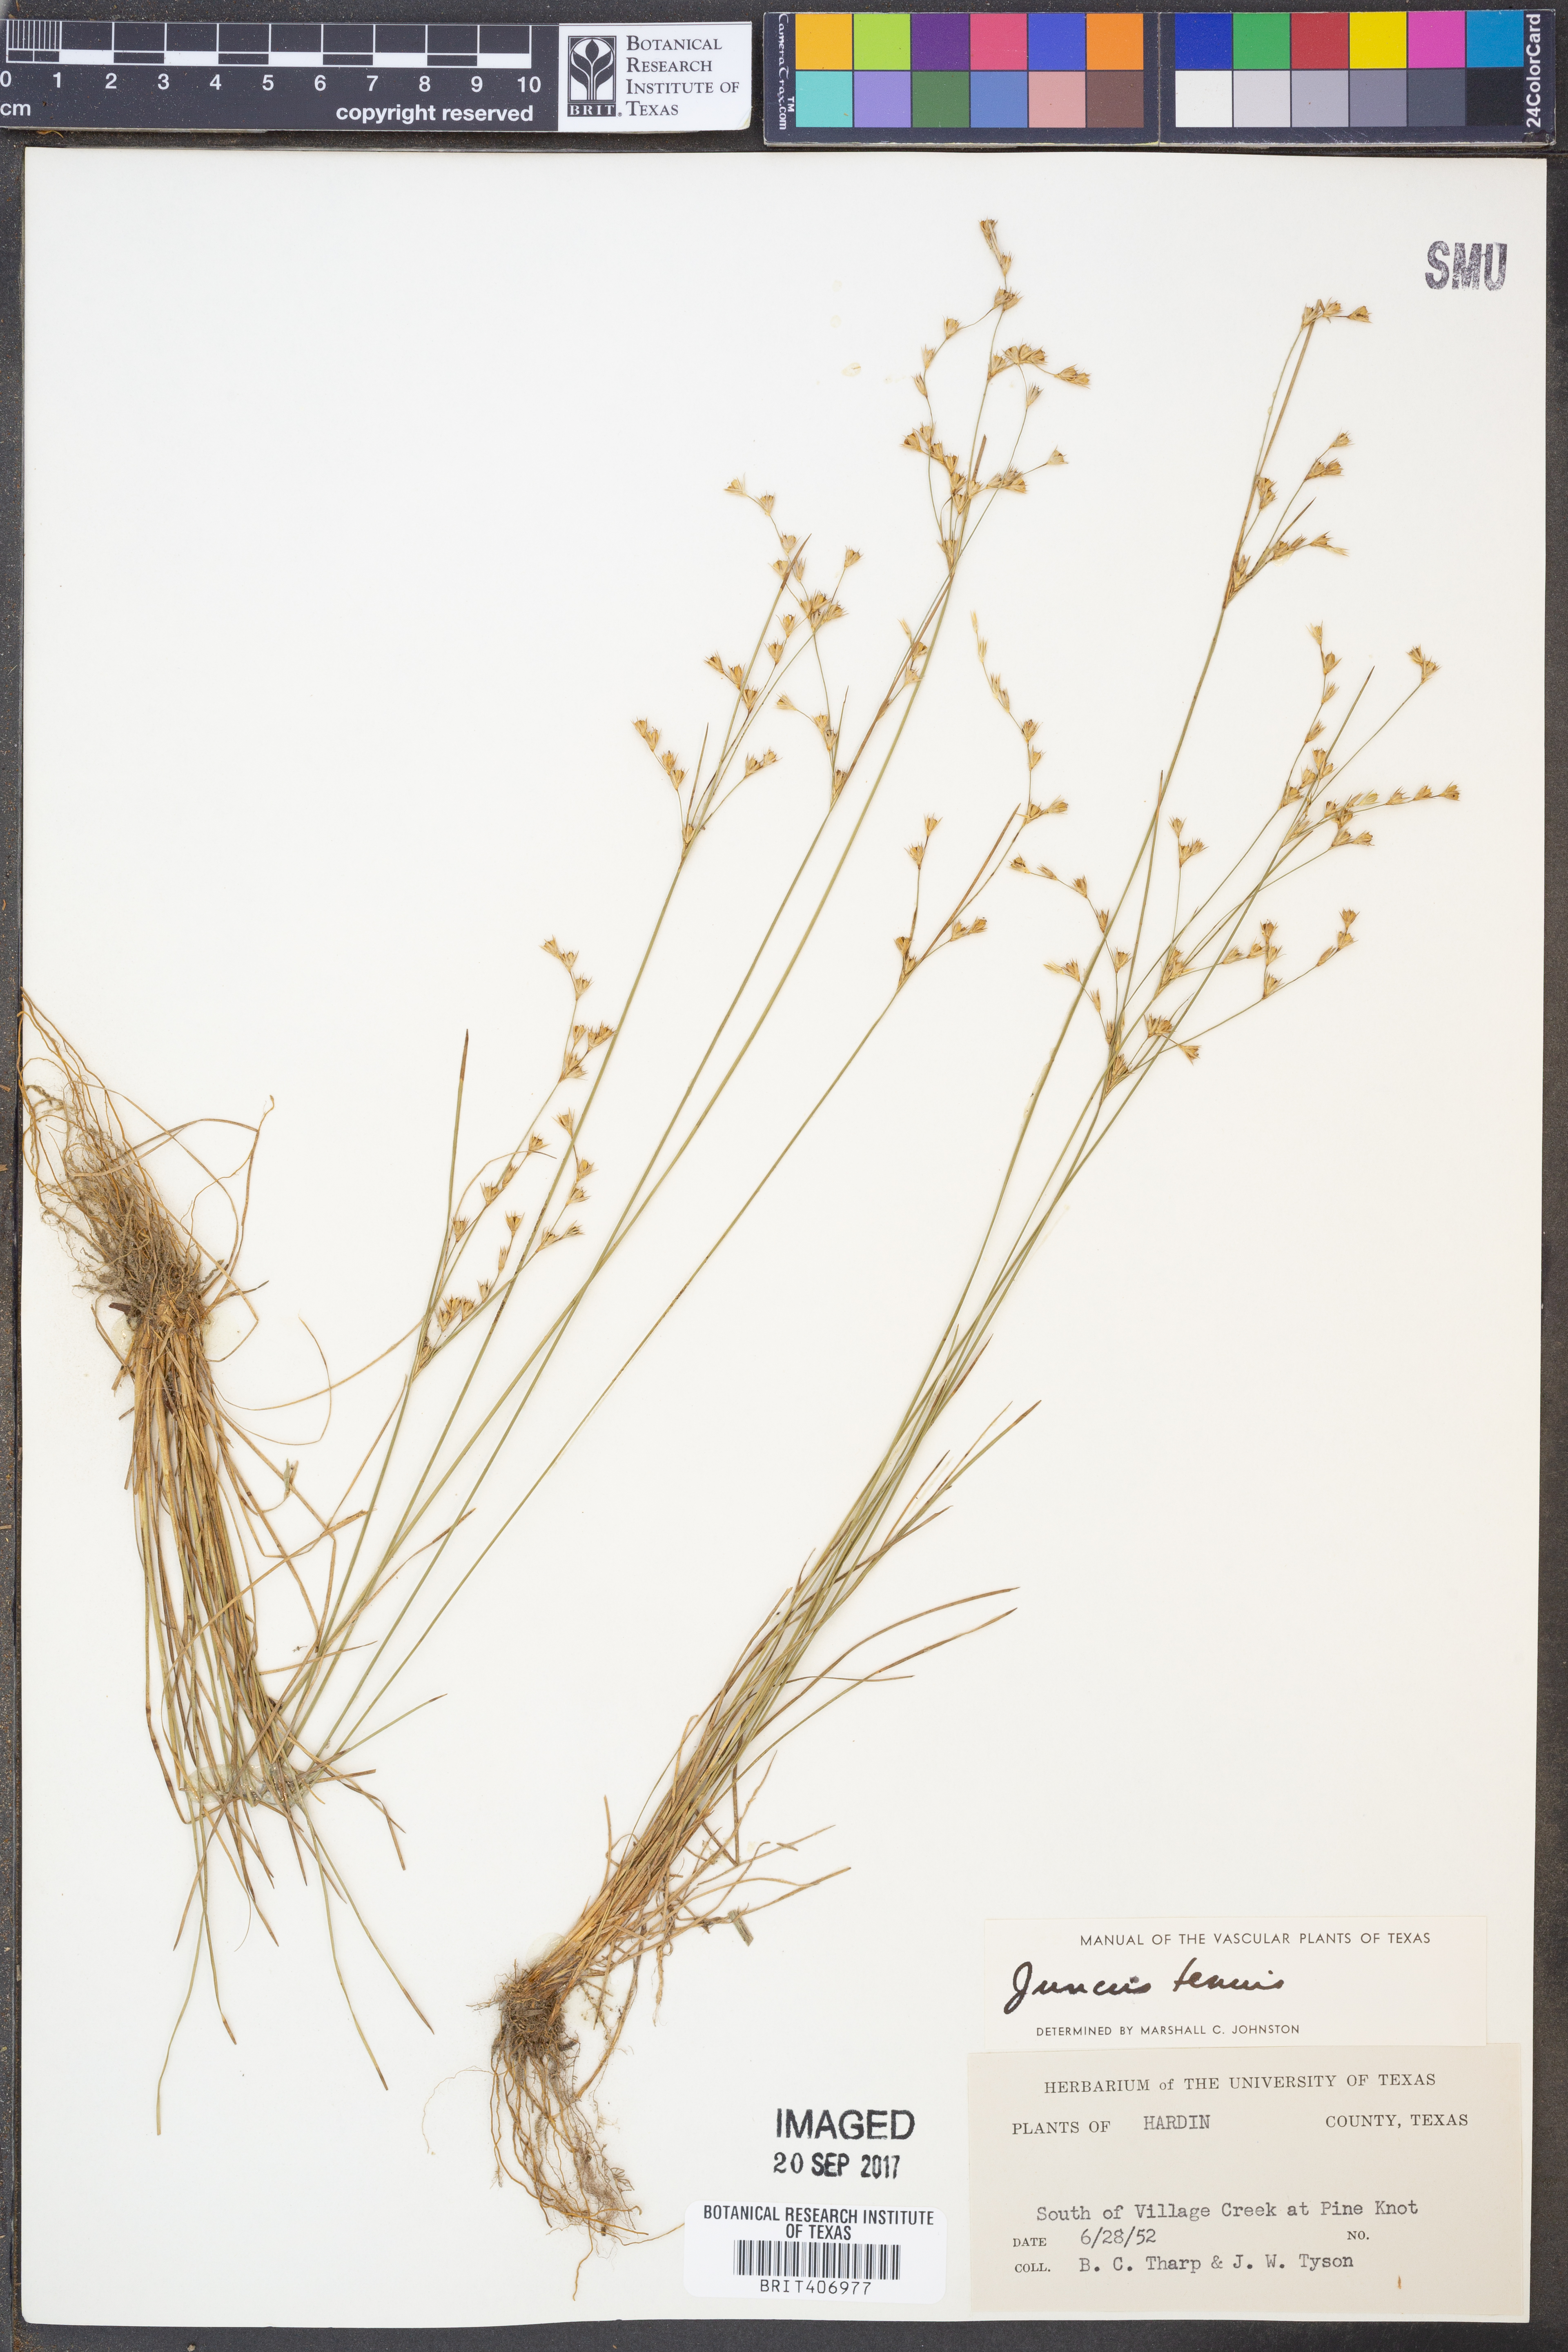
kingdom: Plantae
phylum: Tracheophyta
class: Liliopsida
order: Poales
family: Juncaceae
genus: Juncus
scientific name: Juncus tenuis
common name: Slender rush
